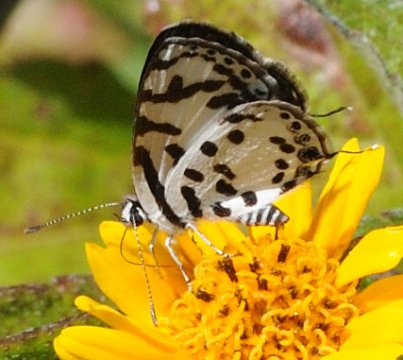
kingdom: Animalia
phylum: Arthropoda
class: Insecta
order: Lepidoptera
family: Lycaenidae
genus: Castalius
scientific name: Castalius calice
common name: White Pie
